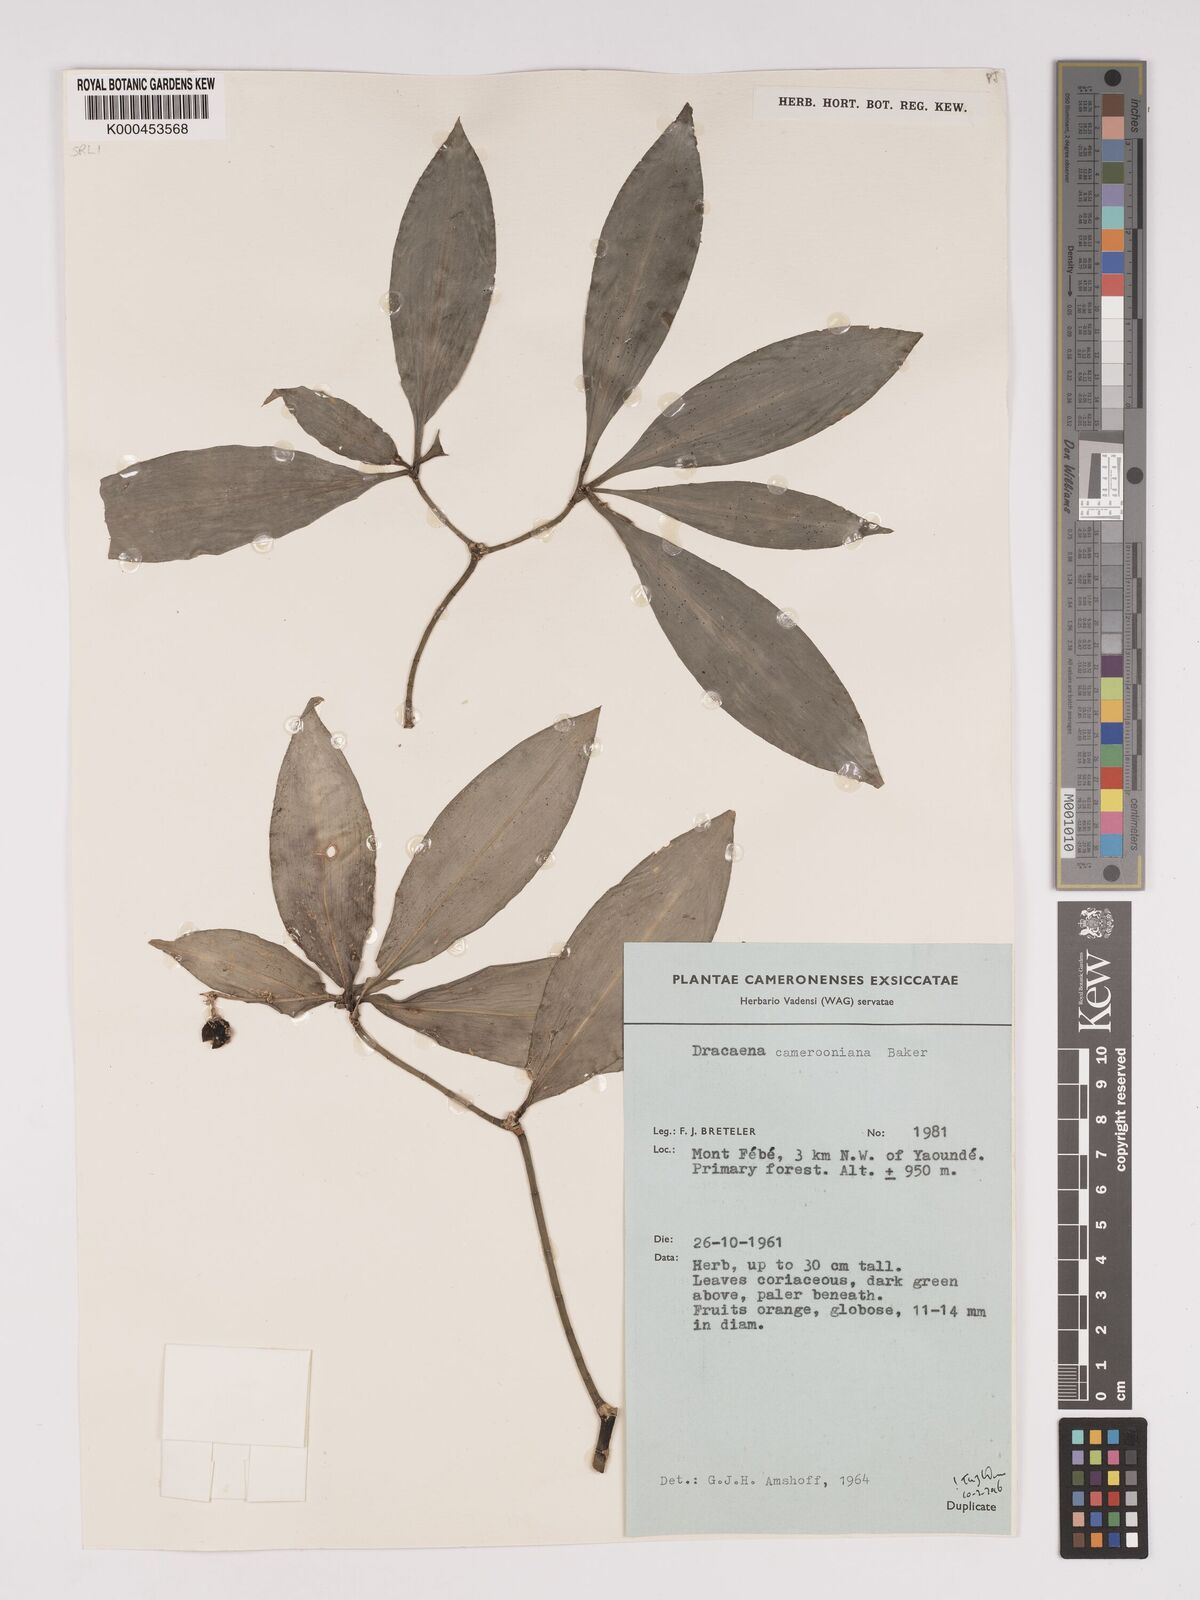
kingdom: Plantae
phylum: Tracheophyta
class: Liliopsida
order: Asparagales
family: Asparagaceae
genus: Dracaena
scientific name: Dracaena camerooniana
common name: Dragon tree
